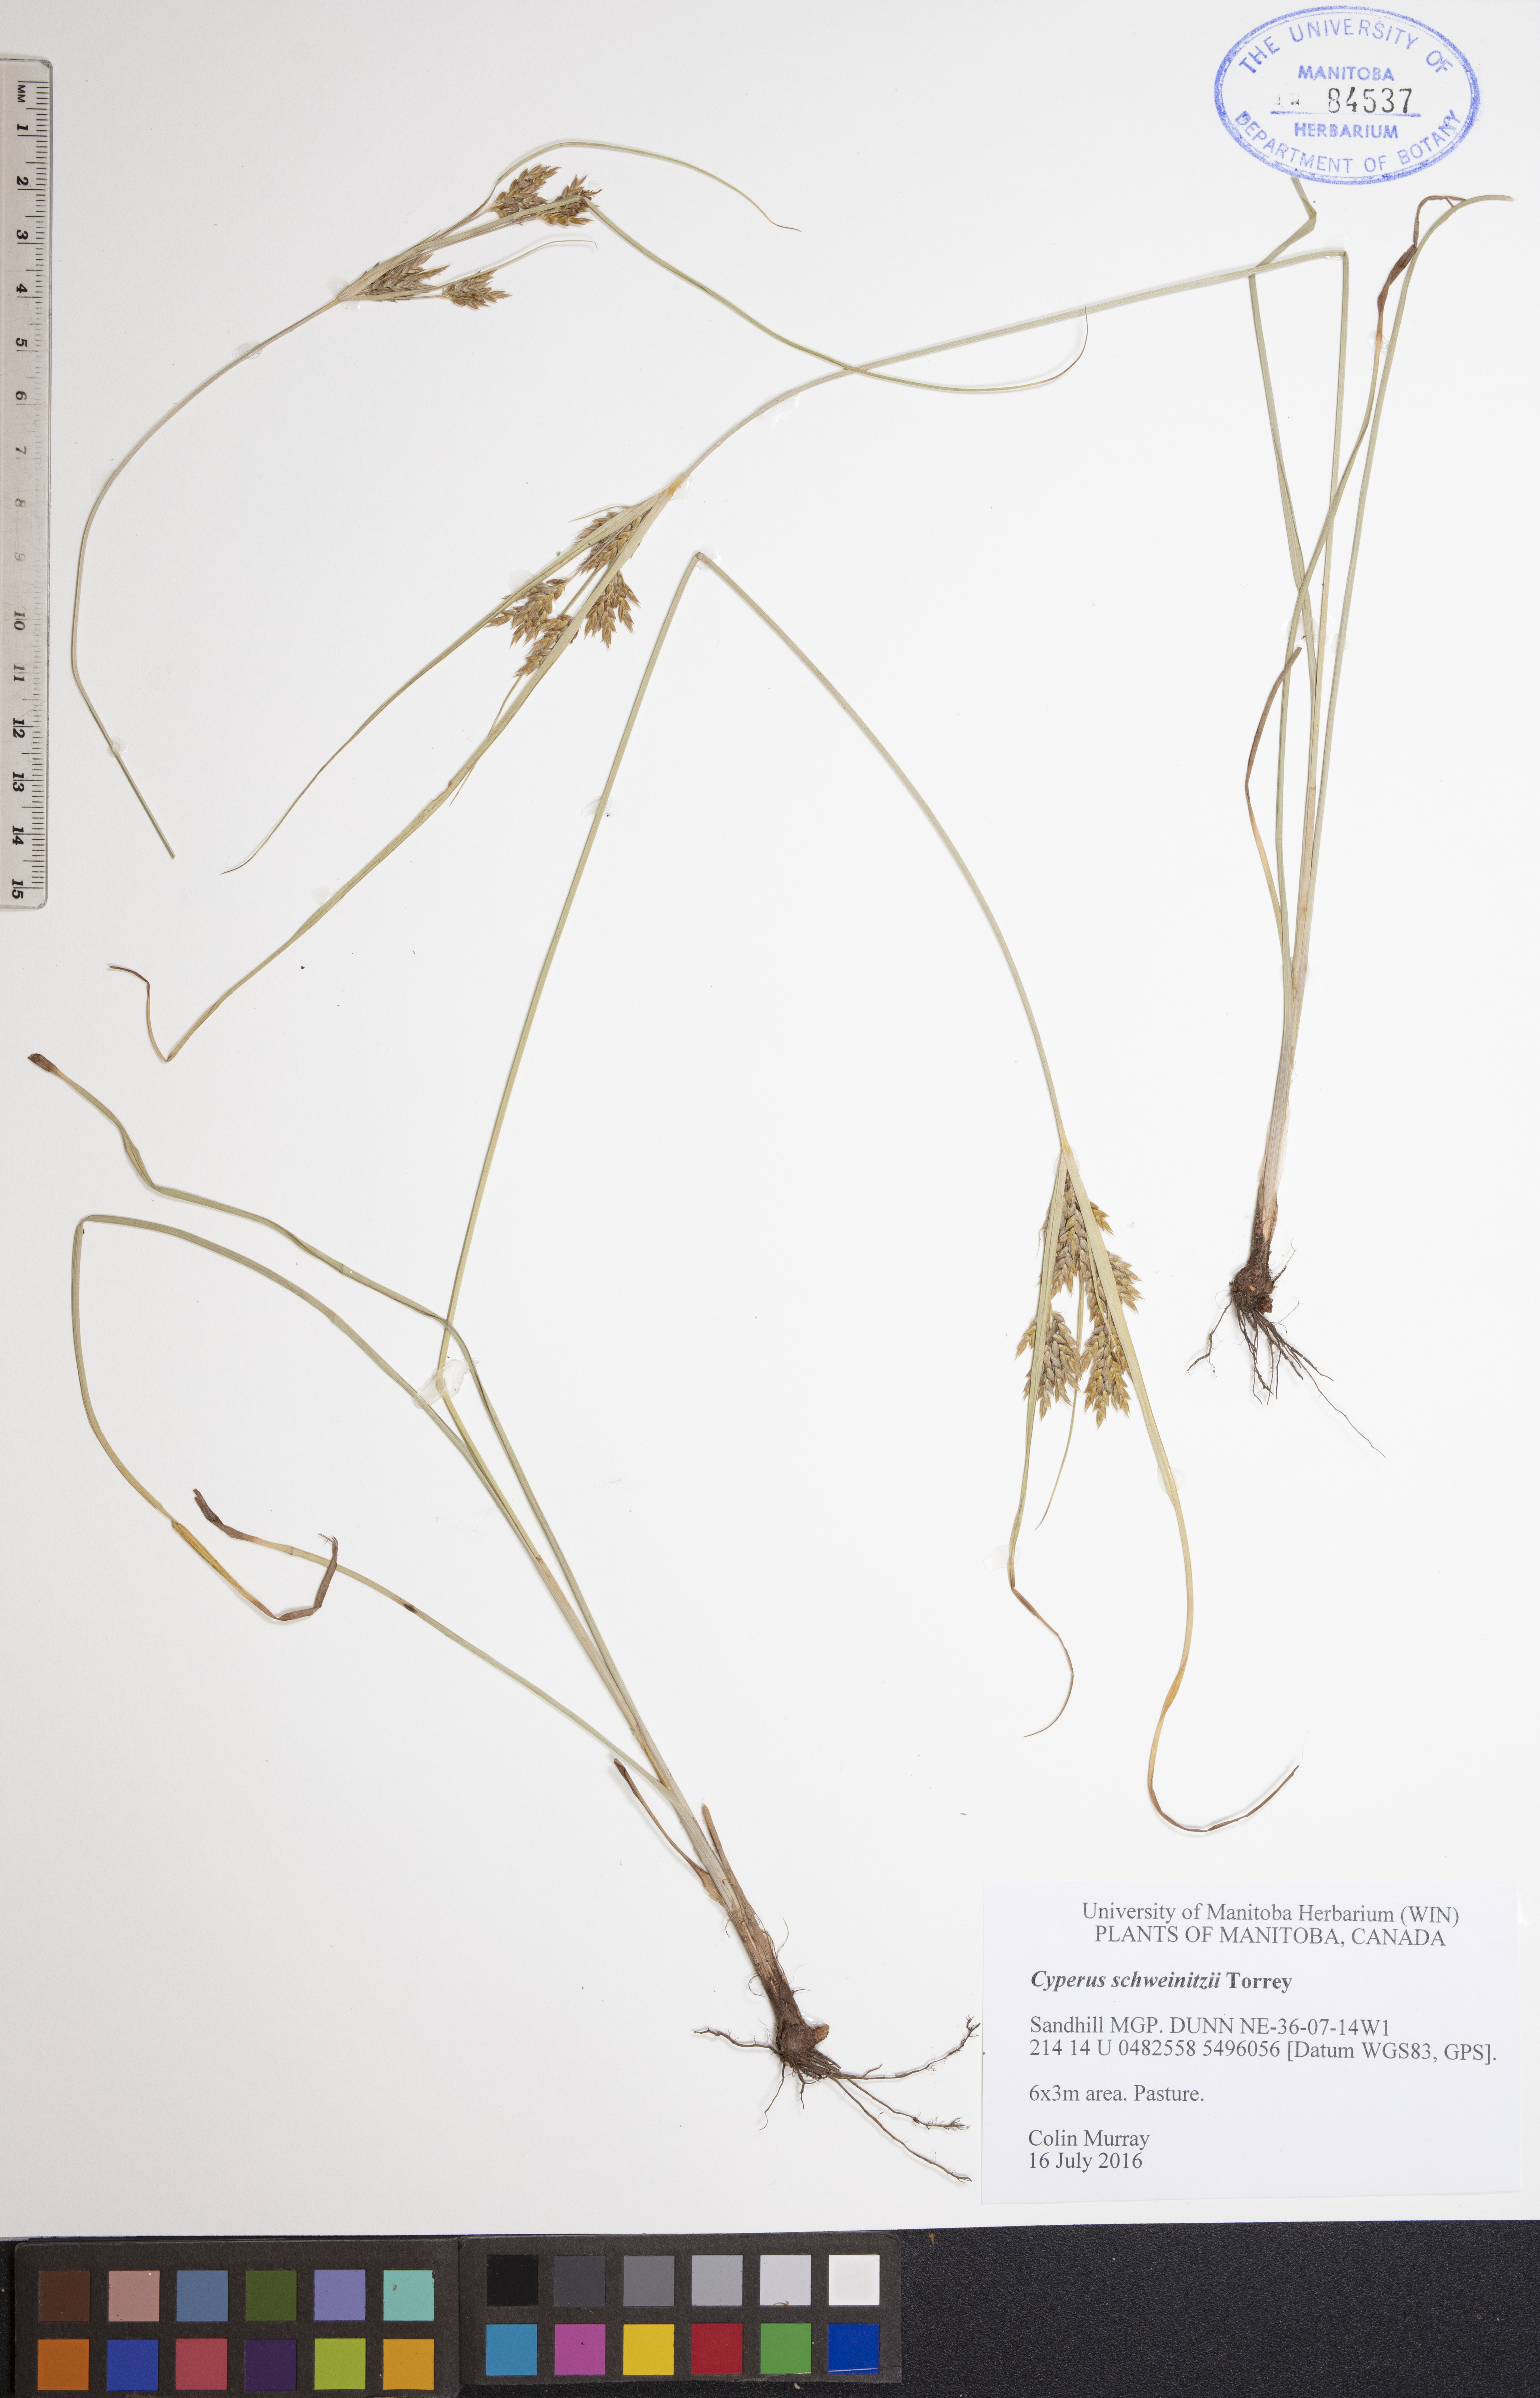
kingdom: Plantae
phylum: Tracheophyta
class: Liliopsida
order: Poales
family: Cyperaceae
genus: Cyperus
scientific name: Cyperus schweinitzii
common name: Schweinitz's cyperus
